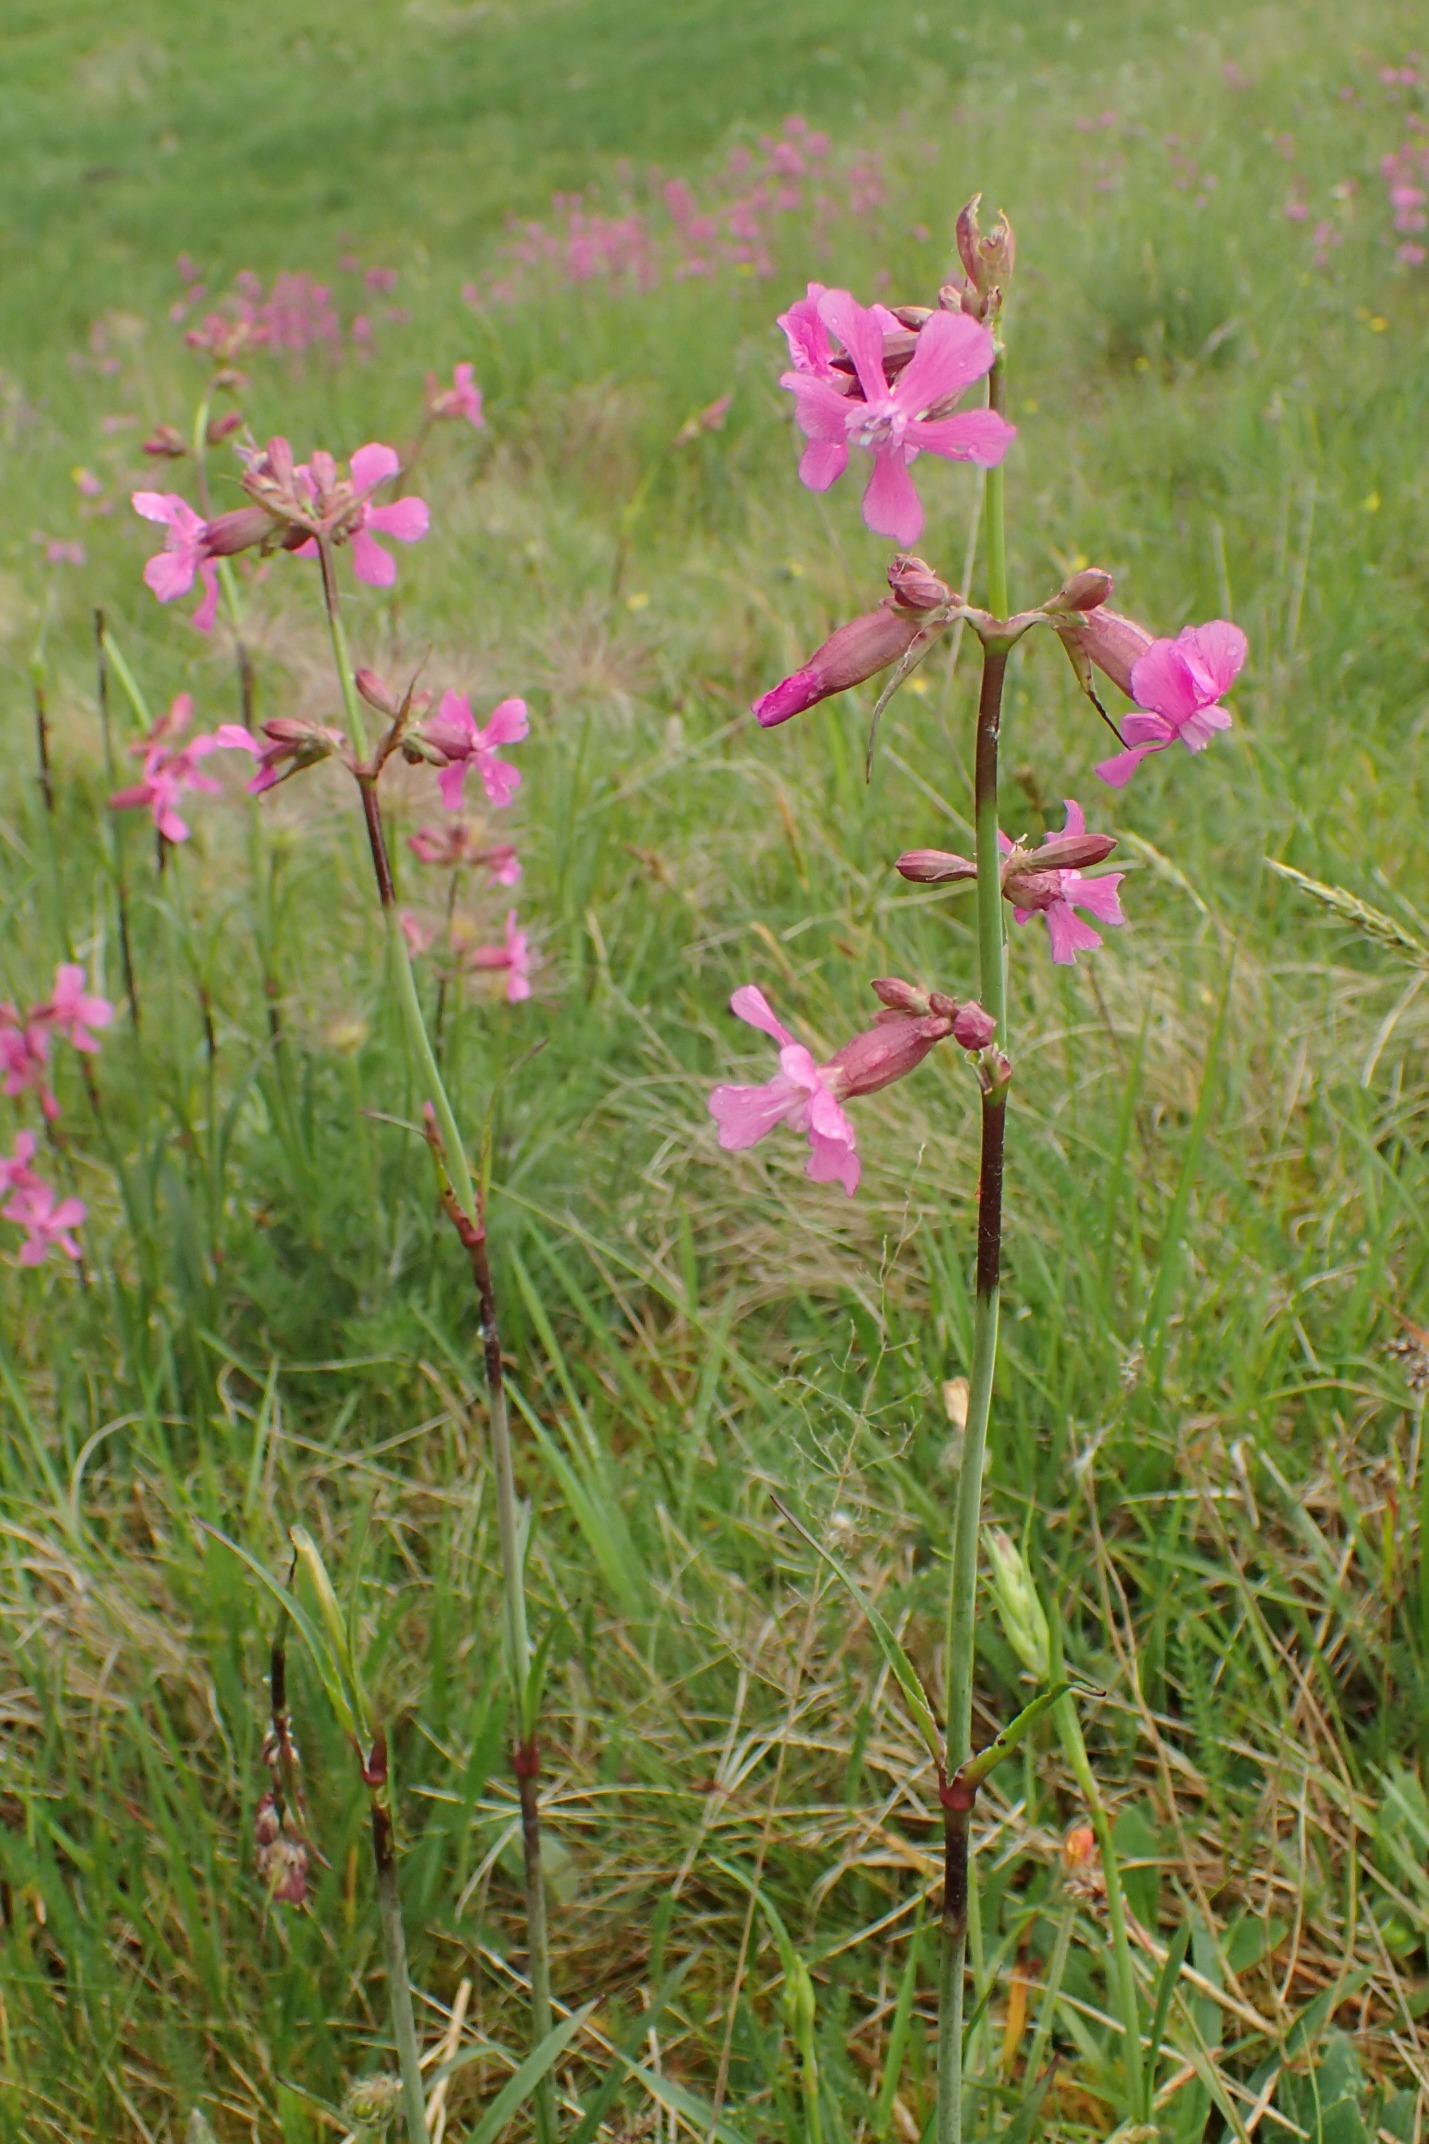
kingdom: Plantae
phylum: Tracheophyta
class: Magnoliopsida
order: Caryophyllales
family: Caryophyllaceae
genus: Viscaria
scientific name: Viscaria vulgaris
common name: Tjærenellike
